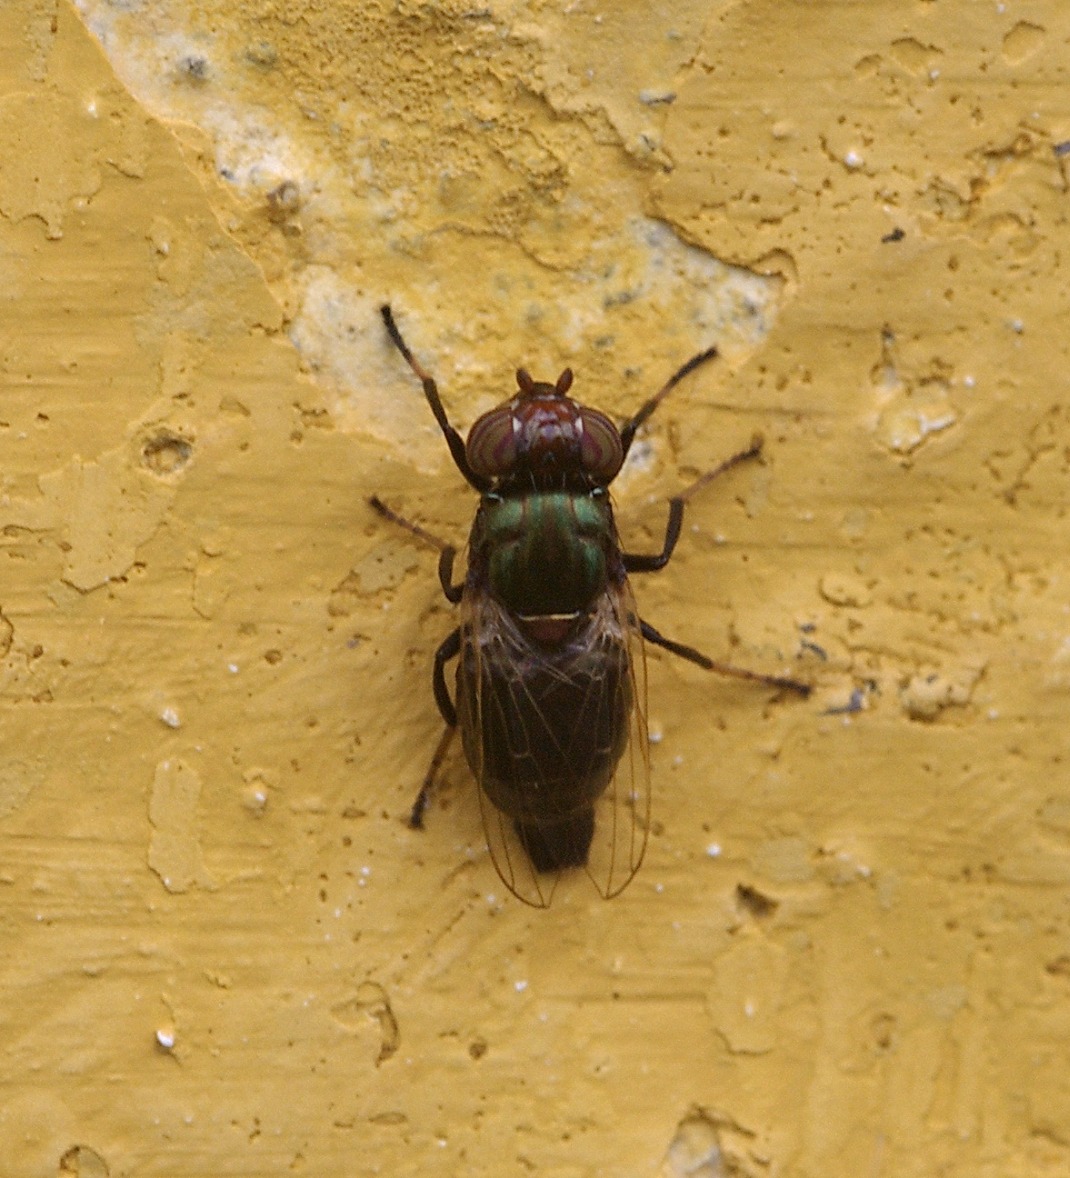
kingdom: Animalia
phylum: Arthropoda
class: Insecta
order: Diptera
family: Ulidiidae
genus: Physiphora
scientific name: Physiphora alceae
